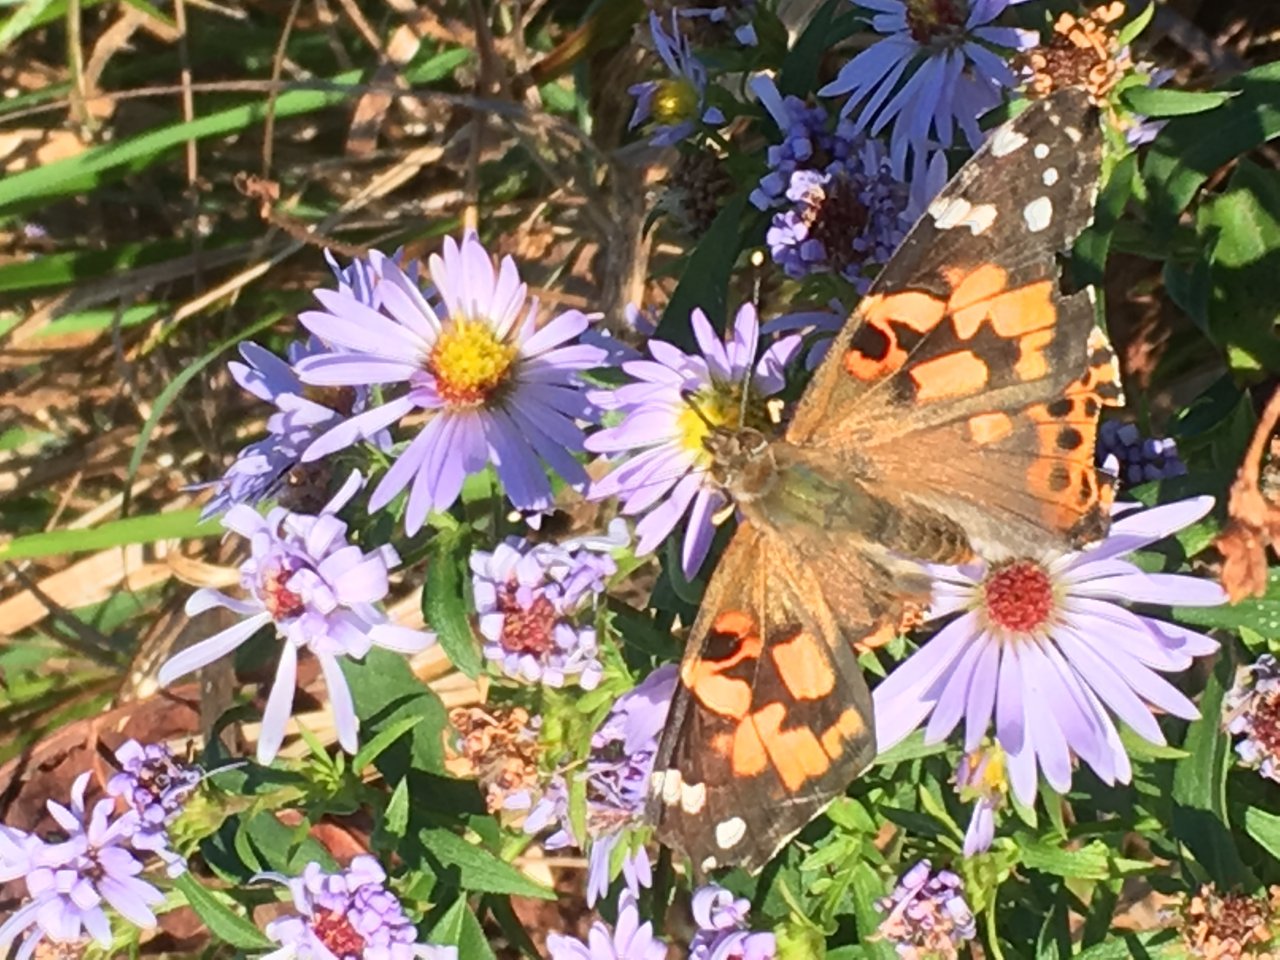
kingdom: Animalia
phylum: Arthropoda
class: Insecta
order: Lepidoptera
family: Nymphalidae
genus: Vanessa
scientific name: Vanessa cardui
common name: Painted Lady
